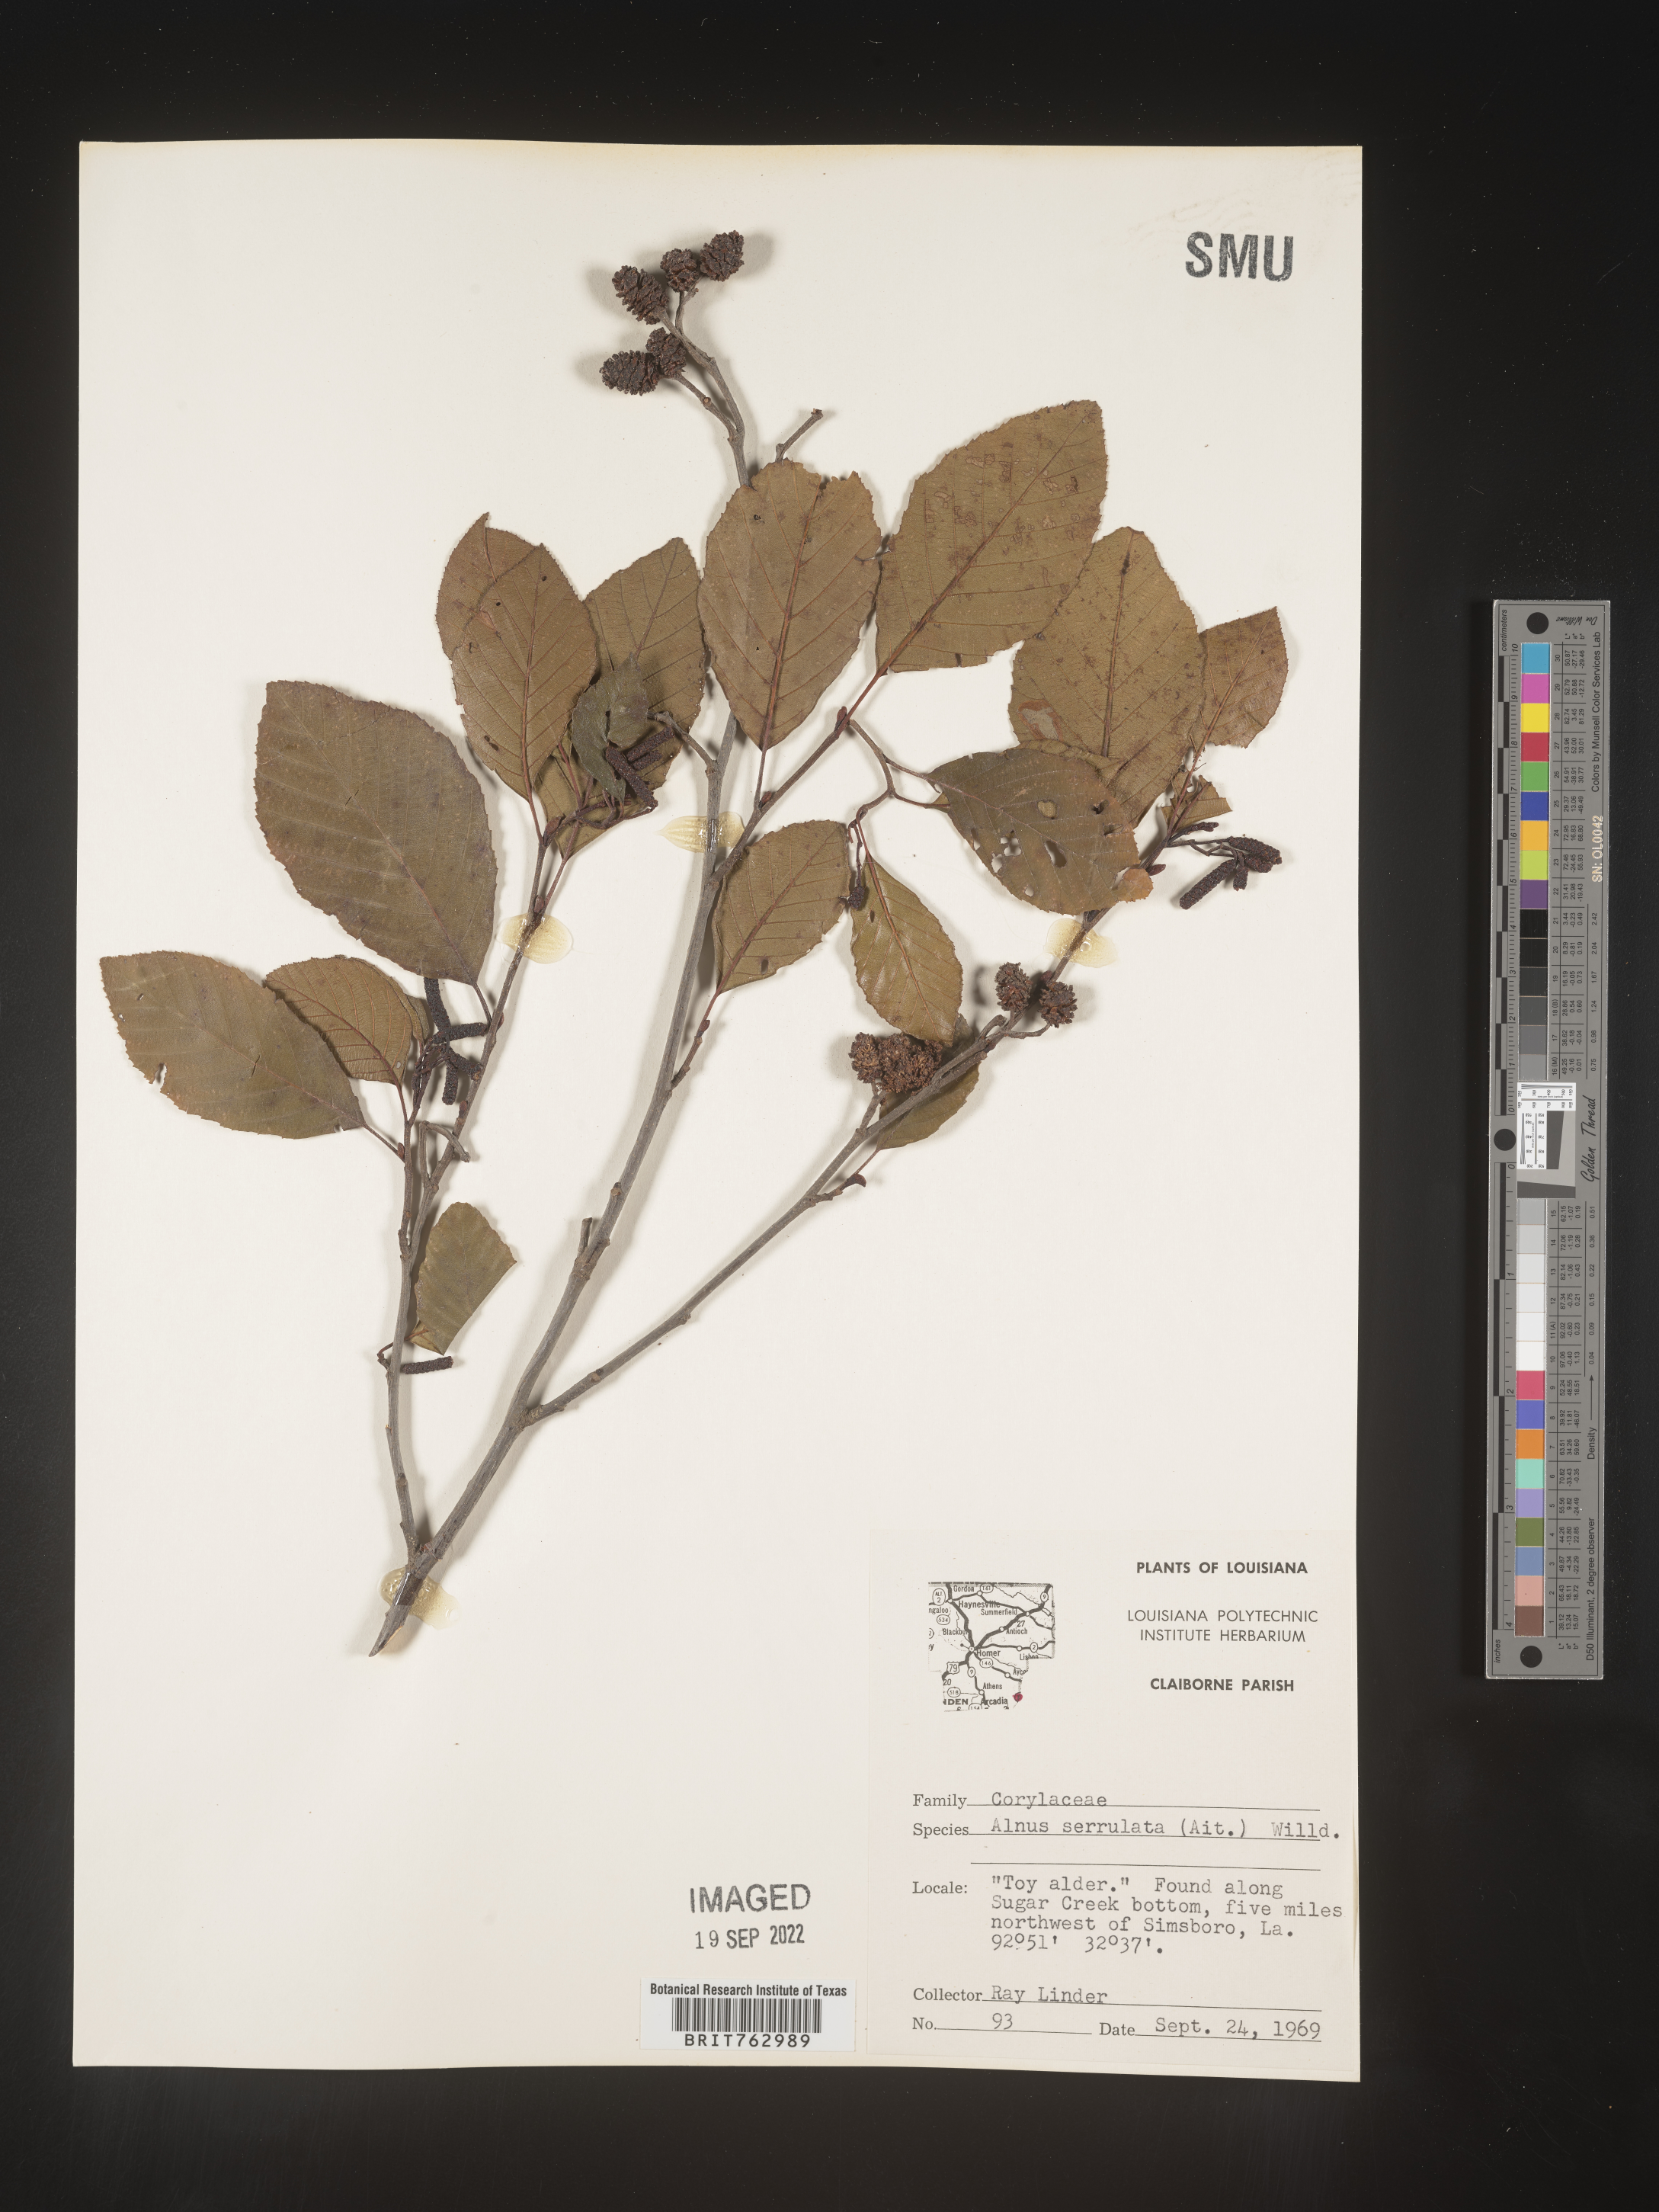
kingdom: Plantae
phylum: Tracheophyta
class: Magnoliopsida
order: Fagales
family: Betulaceae
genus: Alnus
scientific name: Alnus serrulata
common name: Hazel alder
